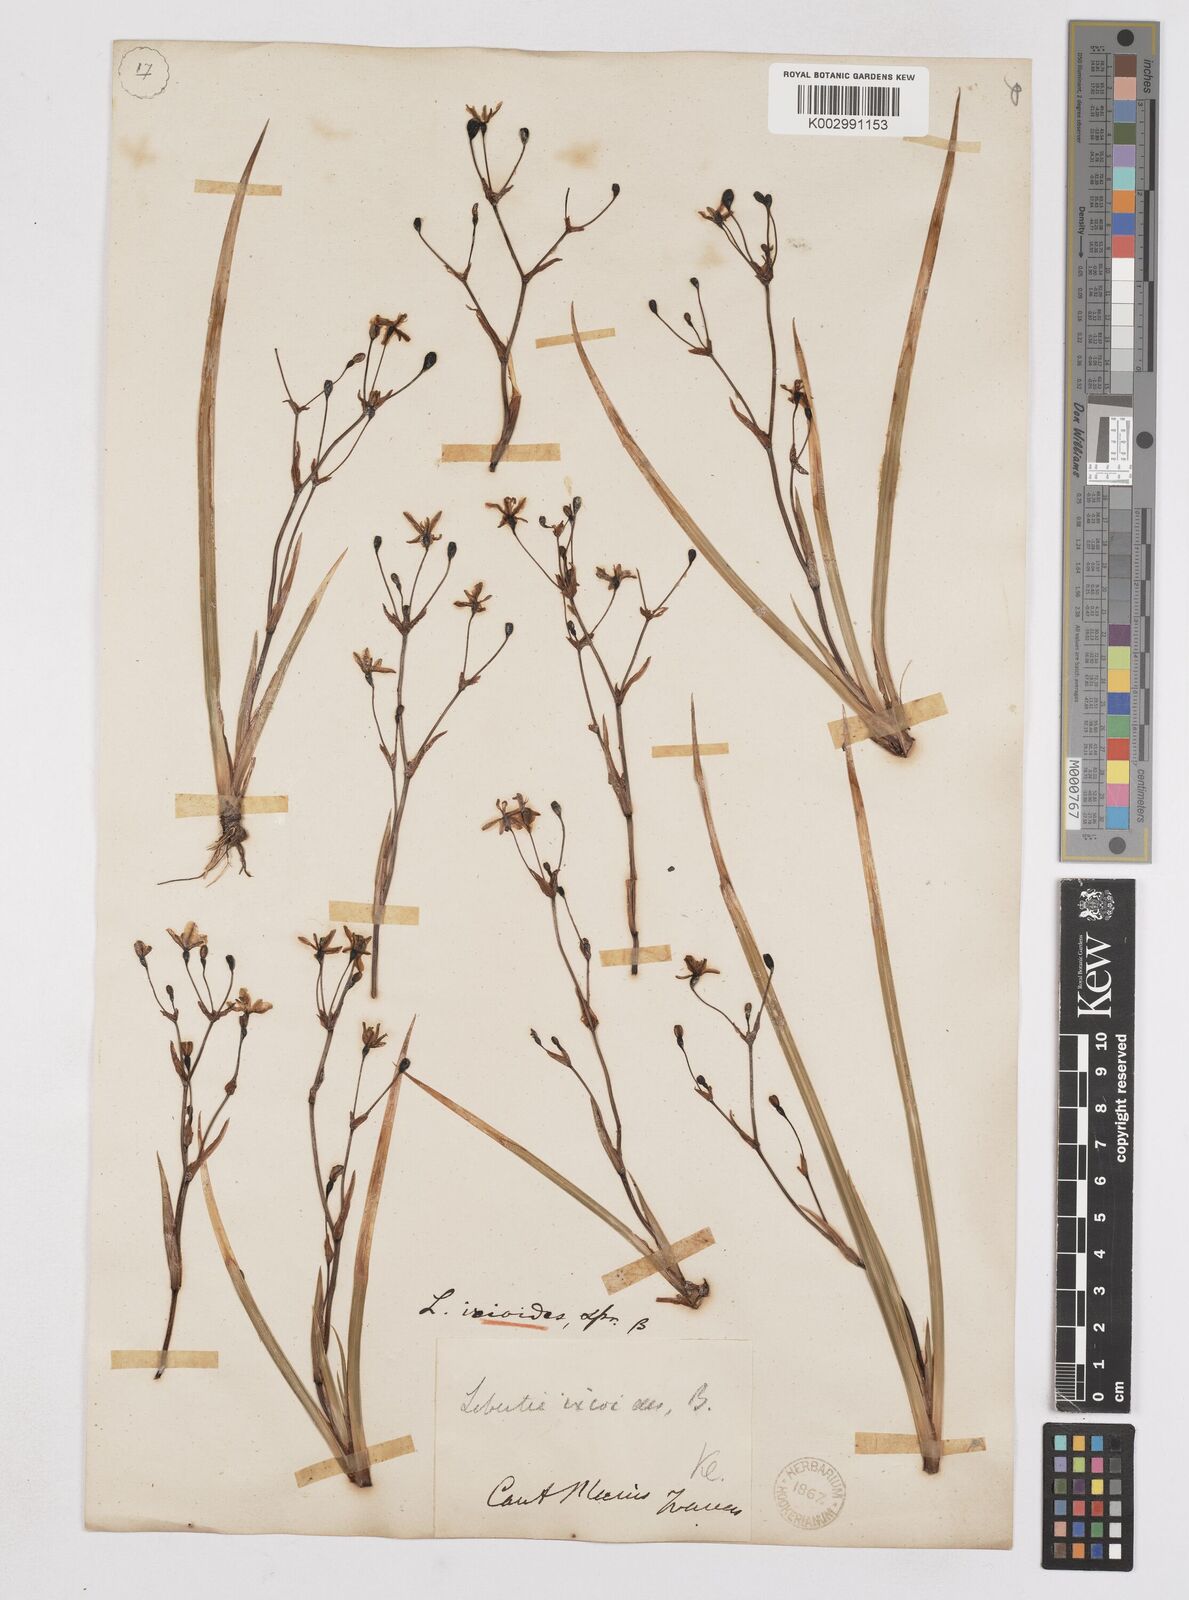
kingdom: Plantae
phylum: Tracheophyta
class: Liliopsida
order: Asparagales
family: Iridaceae
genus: Libertia
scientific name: Libertia peregrinans
